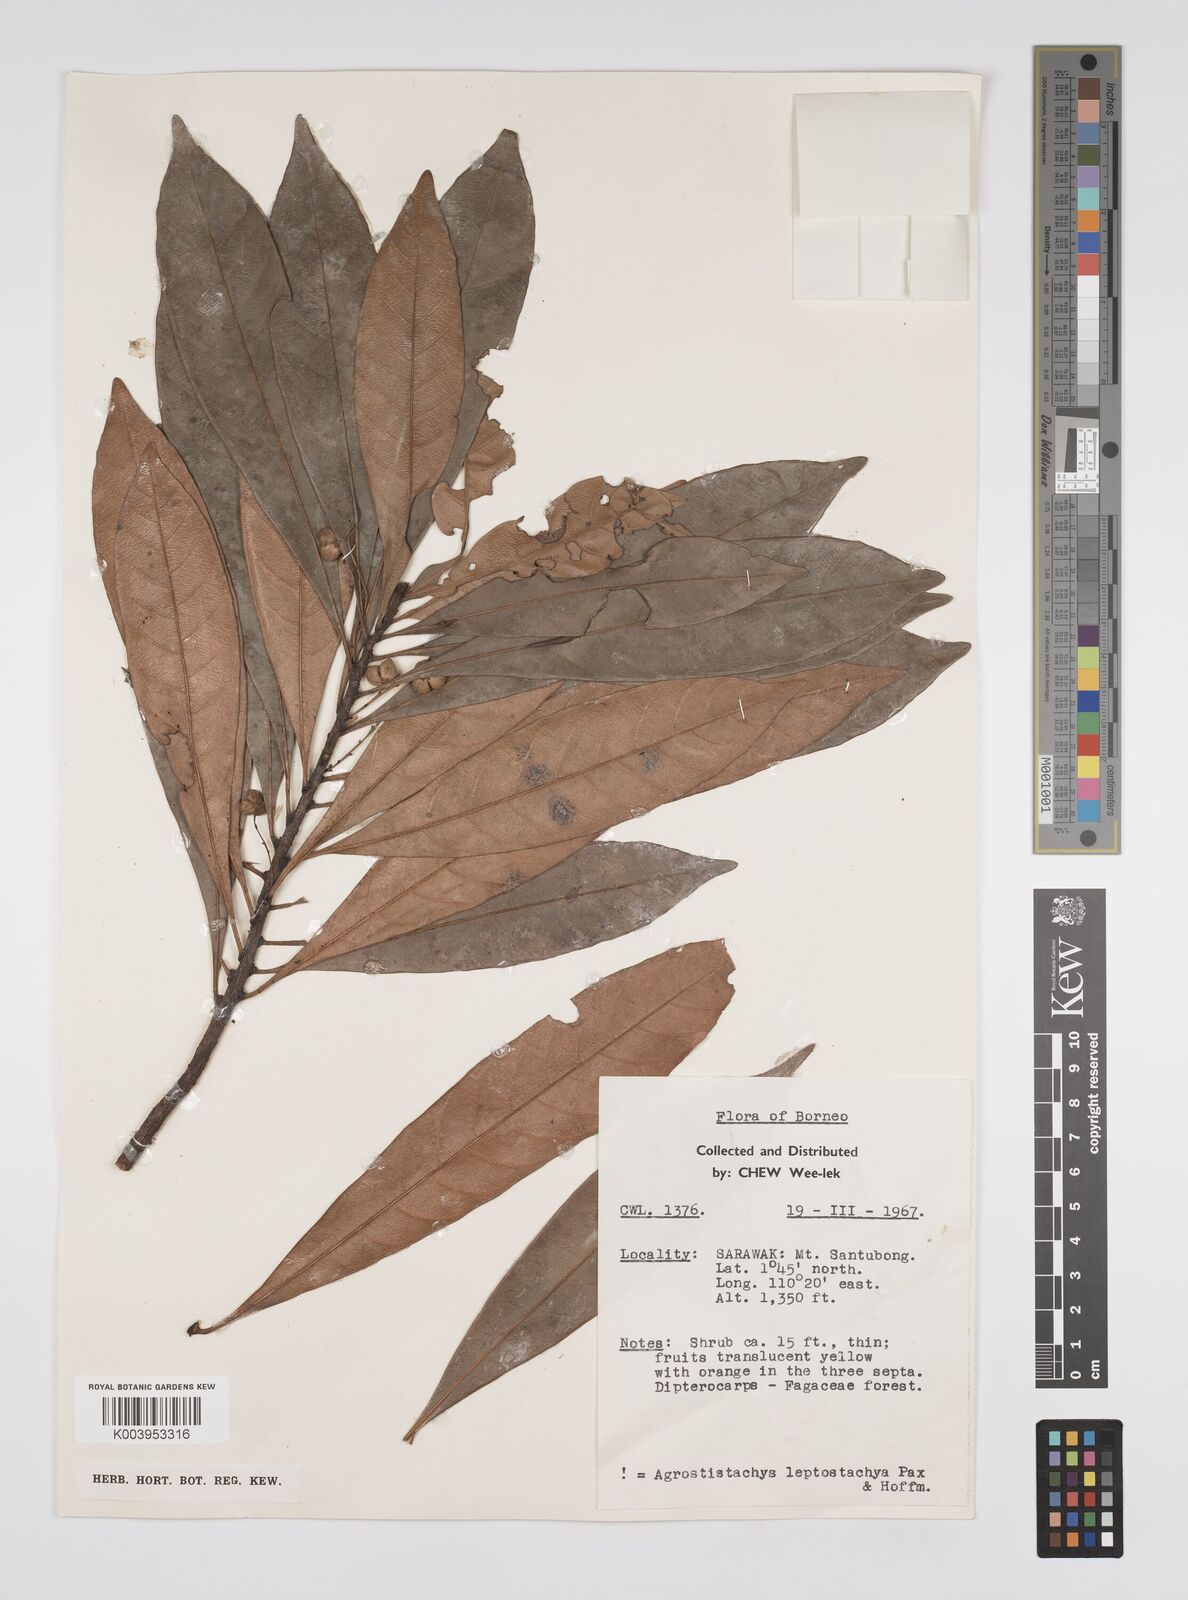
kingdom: Plantae
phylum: Tracheophyta
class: Magnoliopsida
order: Malpighiales
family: Euphorbiaceae
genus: Agrostistachys
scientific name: Agrostistachys
